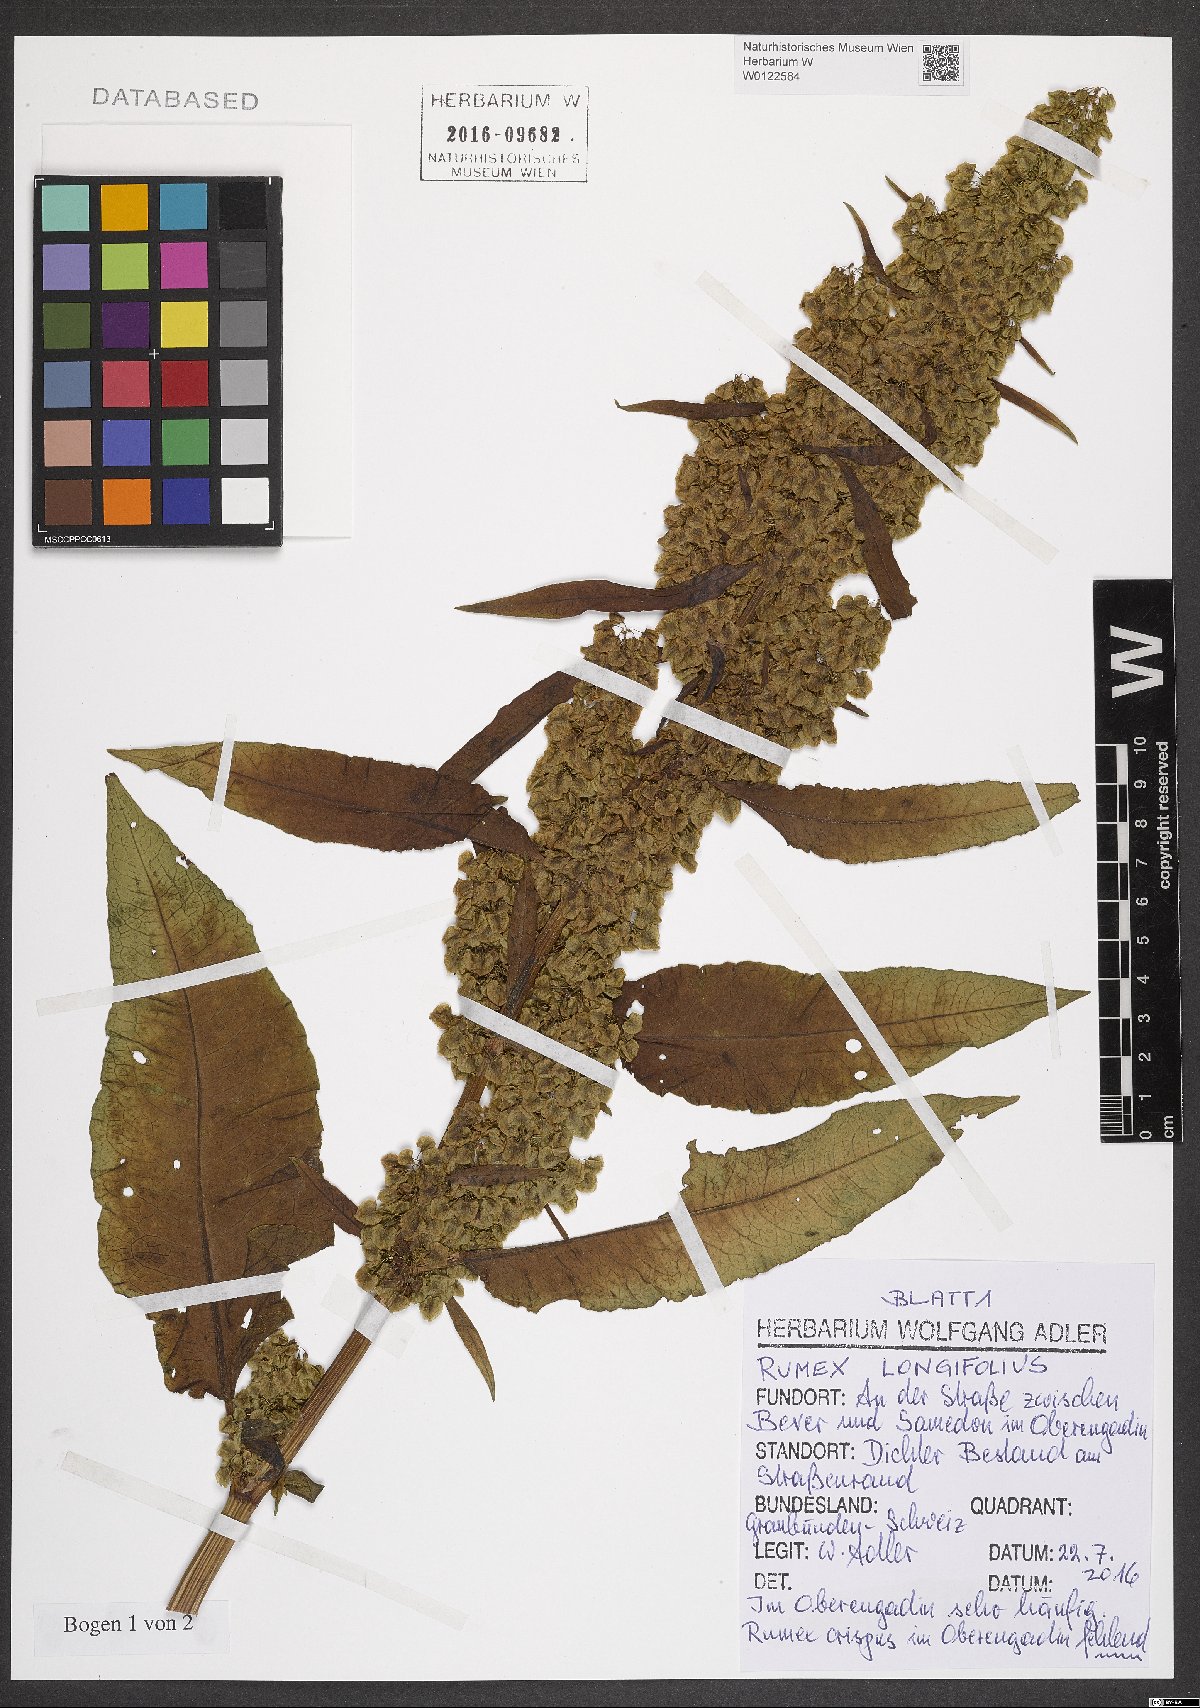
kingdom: Plantae
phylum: Tracheophyta
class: Magnoliopsida
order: Caryophyllales
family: Polygonaceae
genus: Rumex
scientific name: Rumex longifolius
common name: Dooryard dock
